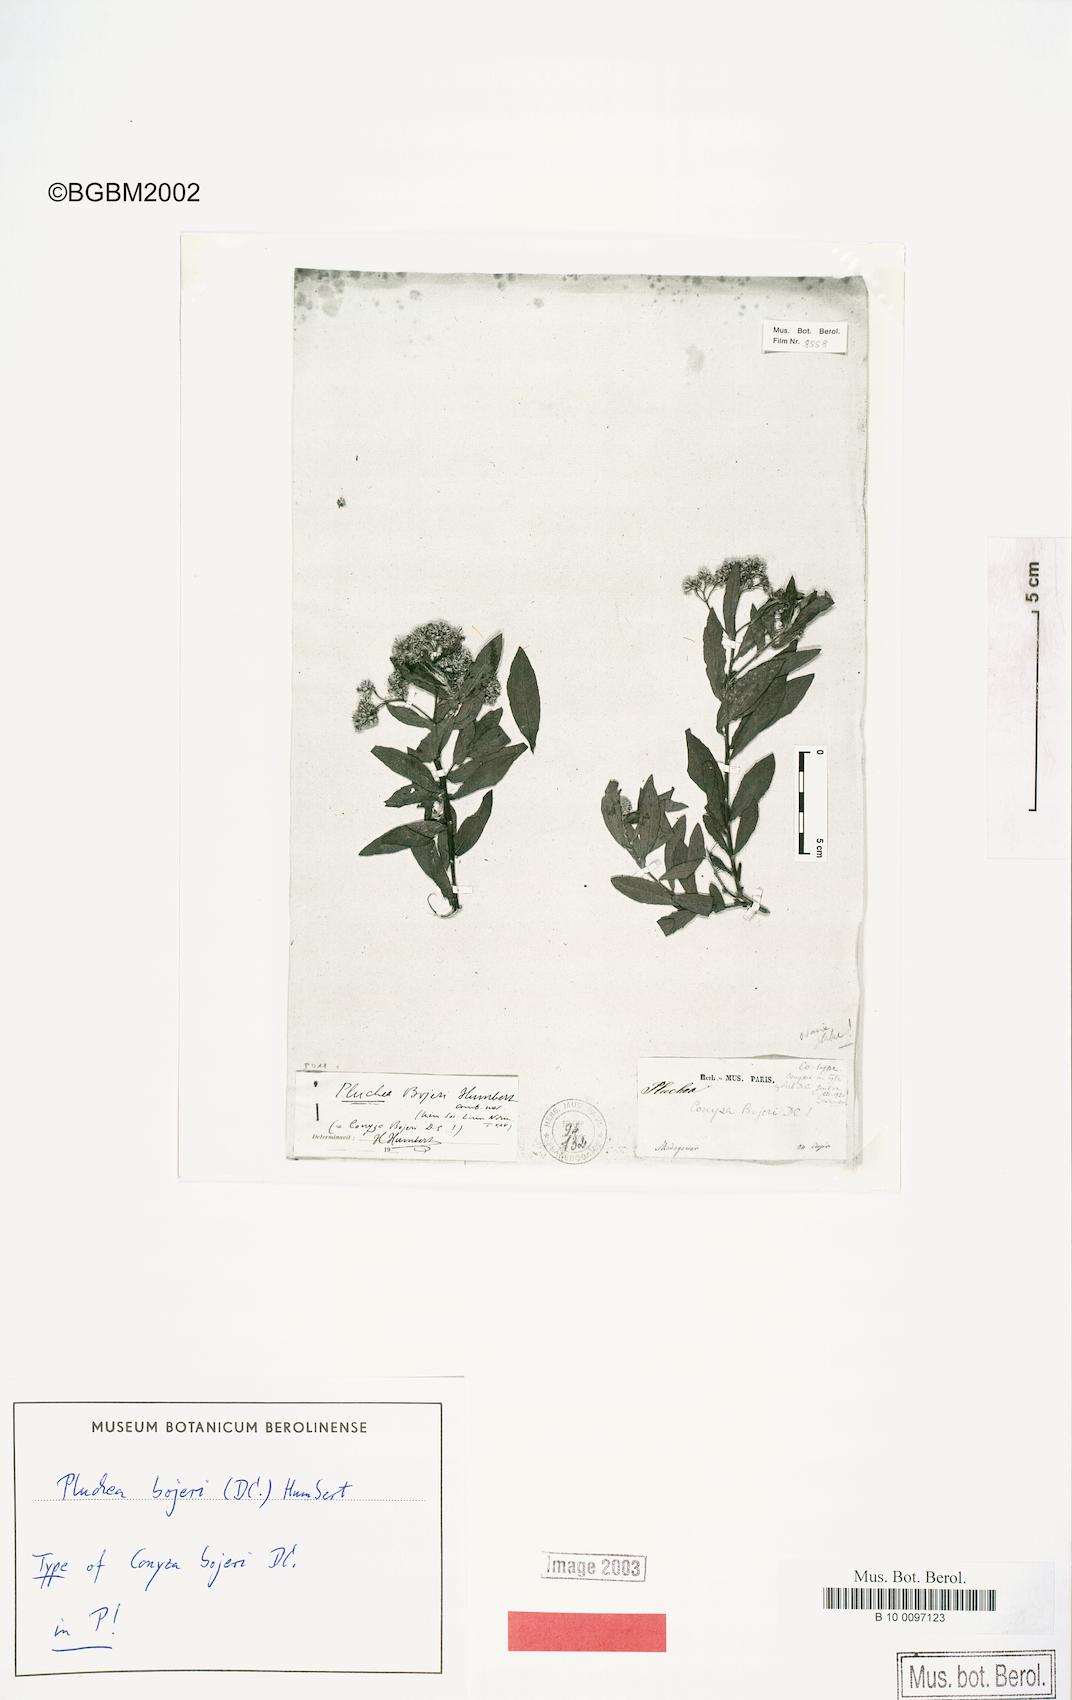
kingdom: Plantae
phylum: Tracheophyta
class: Magnoliopsida
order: Asterales
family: Asteraceae
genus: Pluchea
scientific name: Pluchea bojeri
